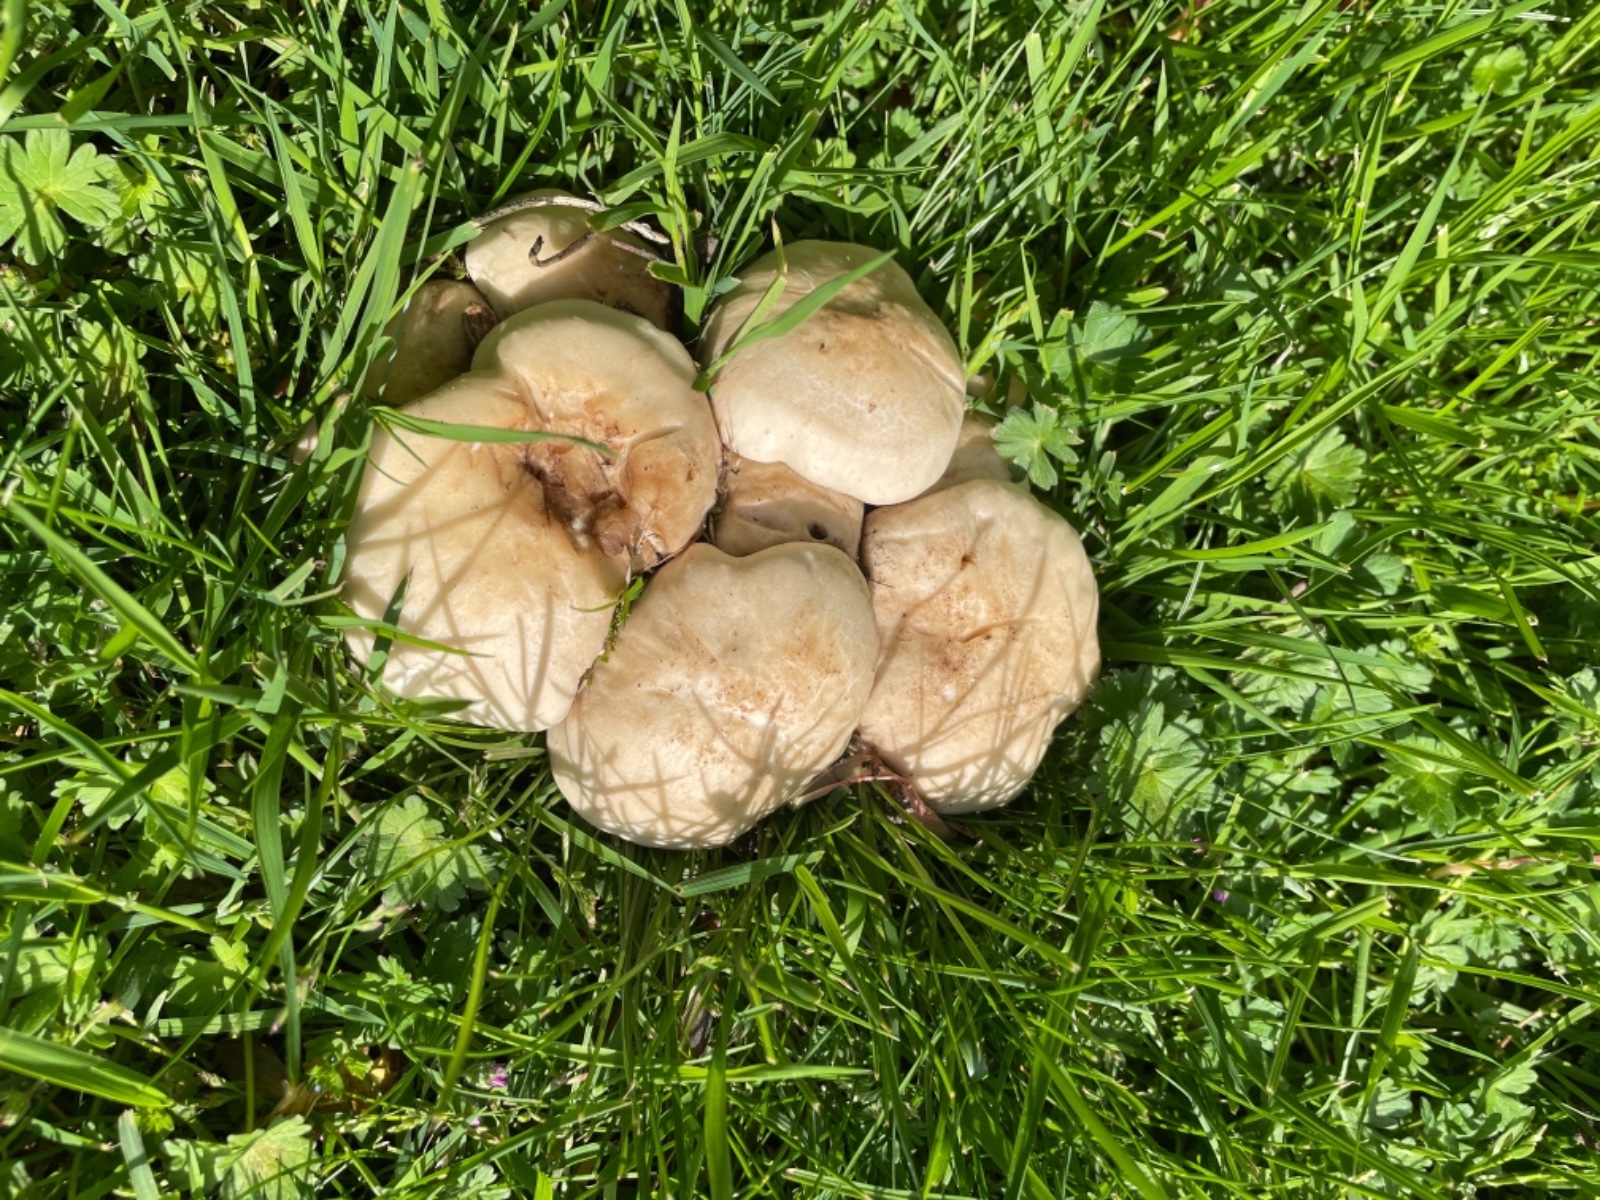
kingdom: Fungi
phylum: Basidiomycota
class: Agaricomycetes
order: Agaricales
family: Lyophyllaceae
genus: Calocybe
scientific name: Calocybe gambosa
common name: vårmusseron
